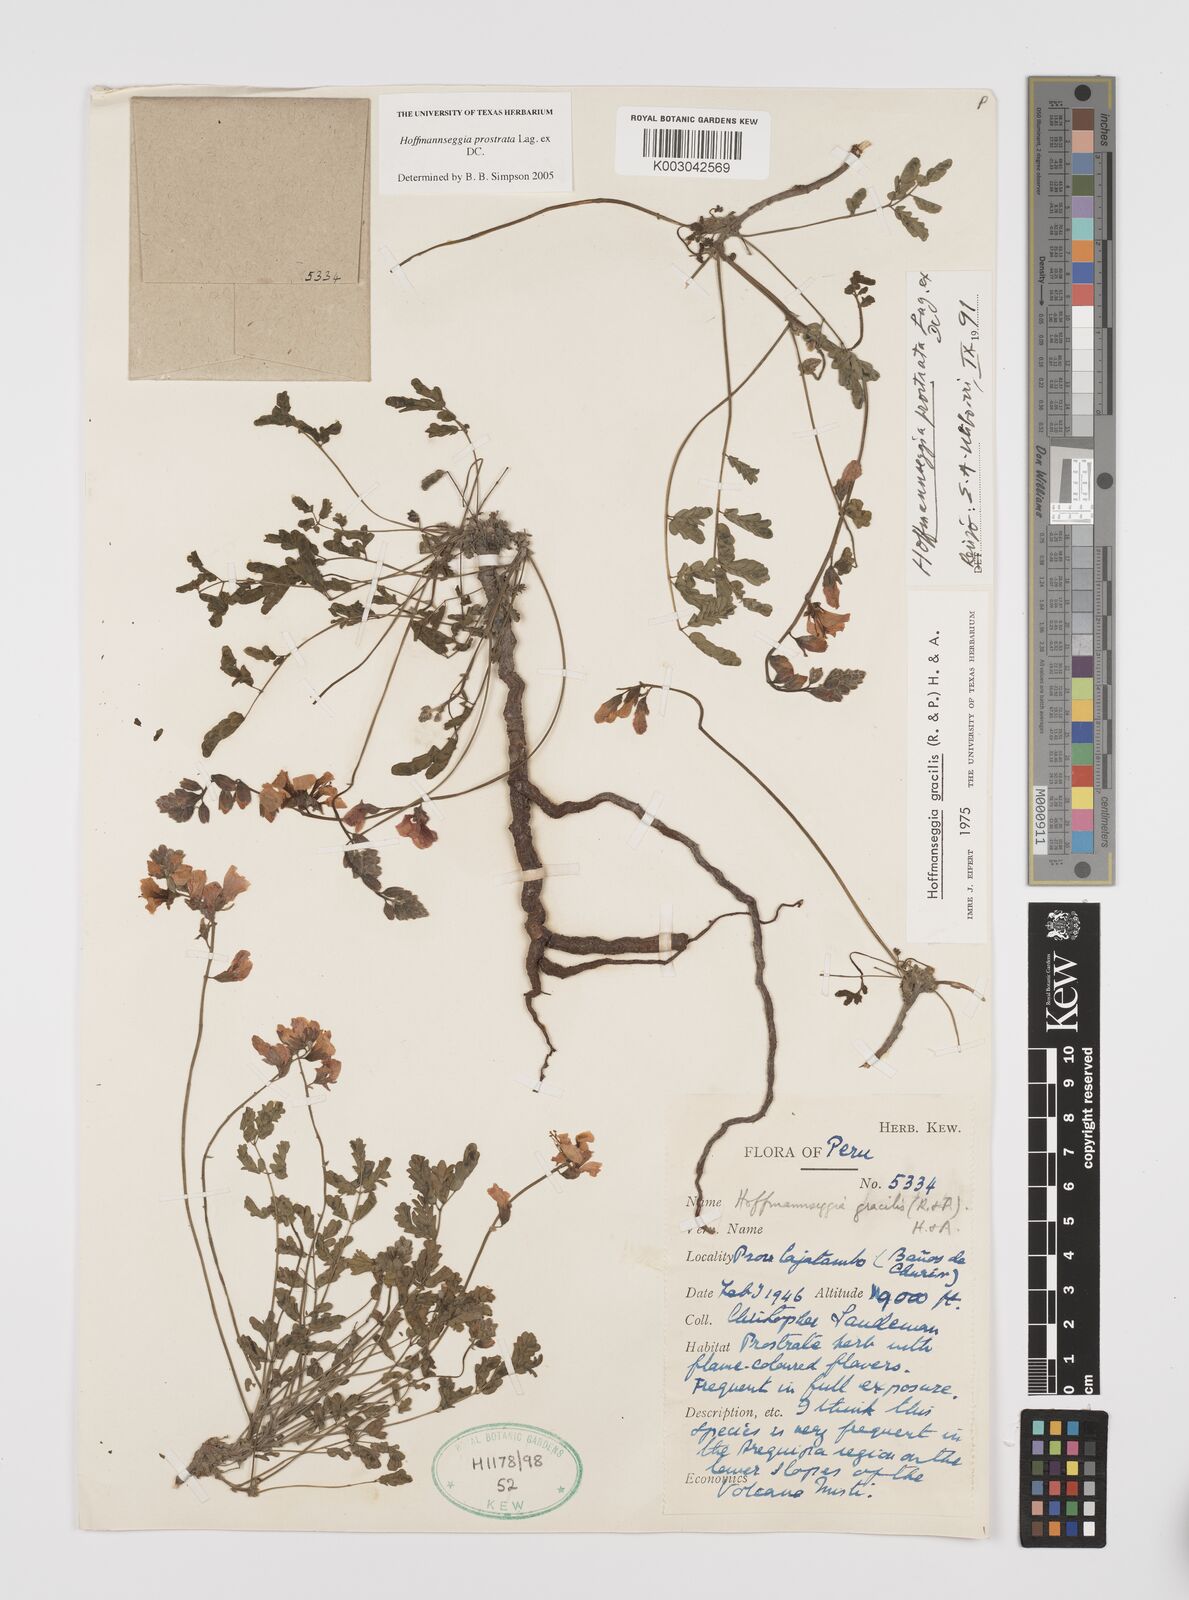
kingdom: Plantae
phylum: Tracheophyta
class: Magnoliopsida
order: Fabales
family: Fabaceae
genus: Hoffmannseggia
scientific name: Hoffmannseggia prostrata
